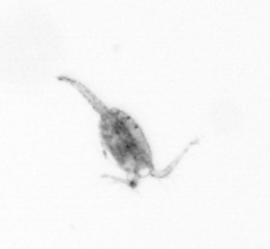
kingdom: Animalia
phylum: Arthropoda
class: Copepoda
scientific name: Copepoda
